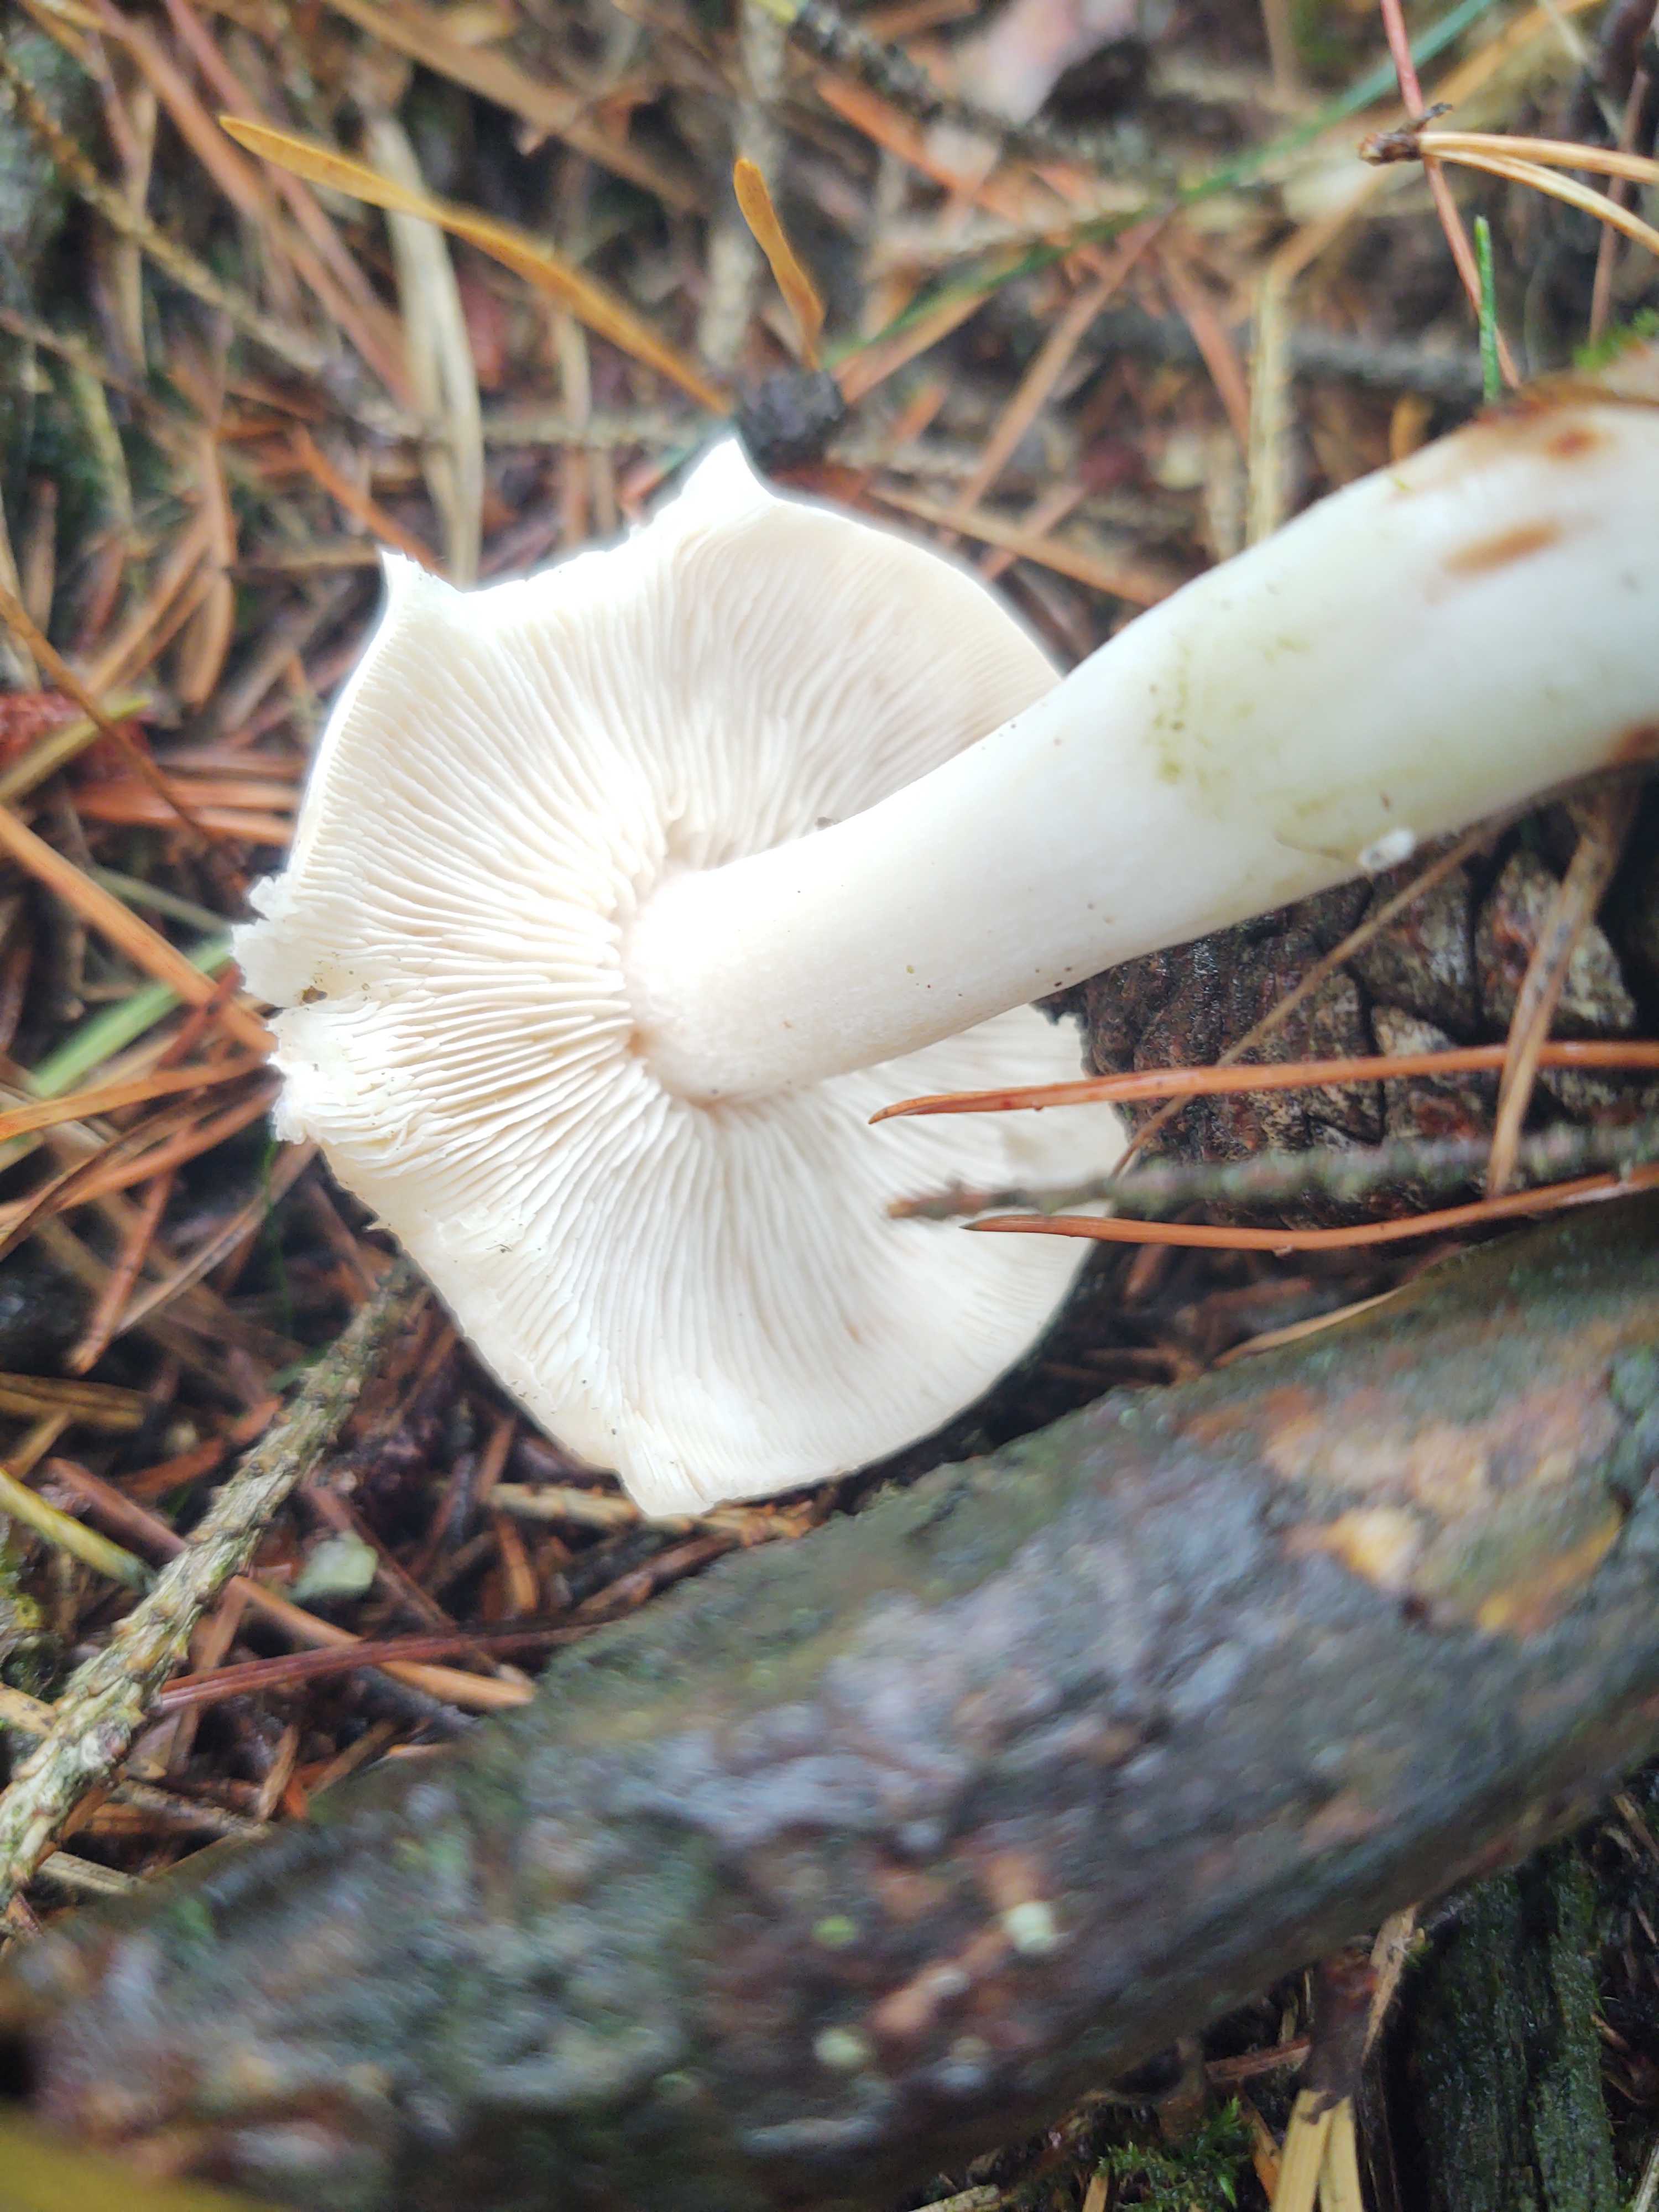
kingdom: Fungi
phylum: Basidiomycota
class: Agaricomycetes
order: Agaricales
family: Omphalotaceae
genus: Rhodocollybia
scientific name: Rhodocollybia maculata
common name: plettet fladhat
